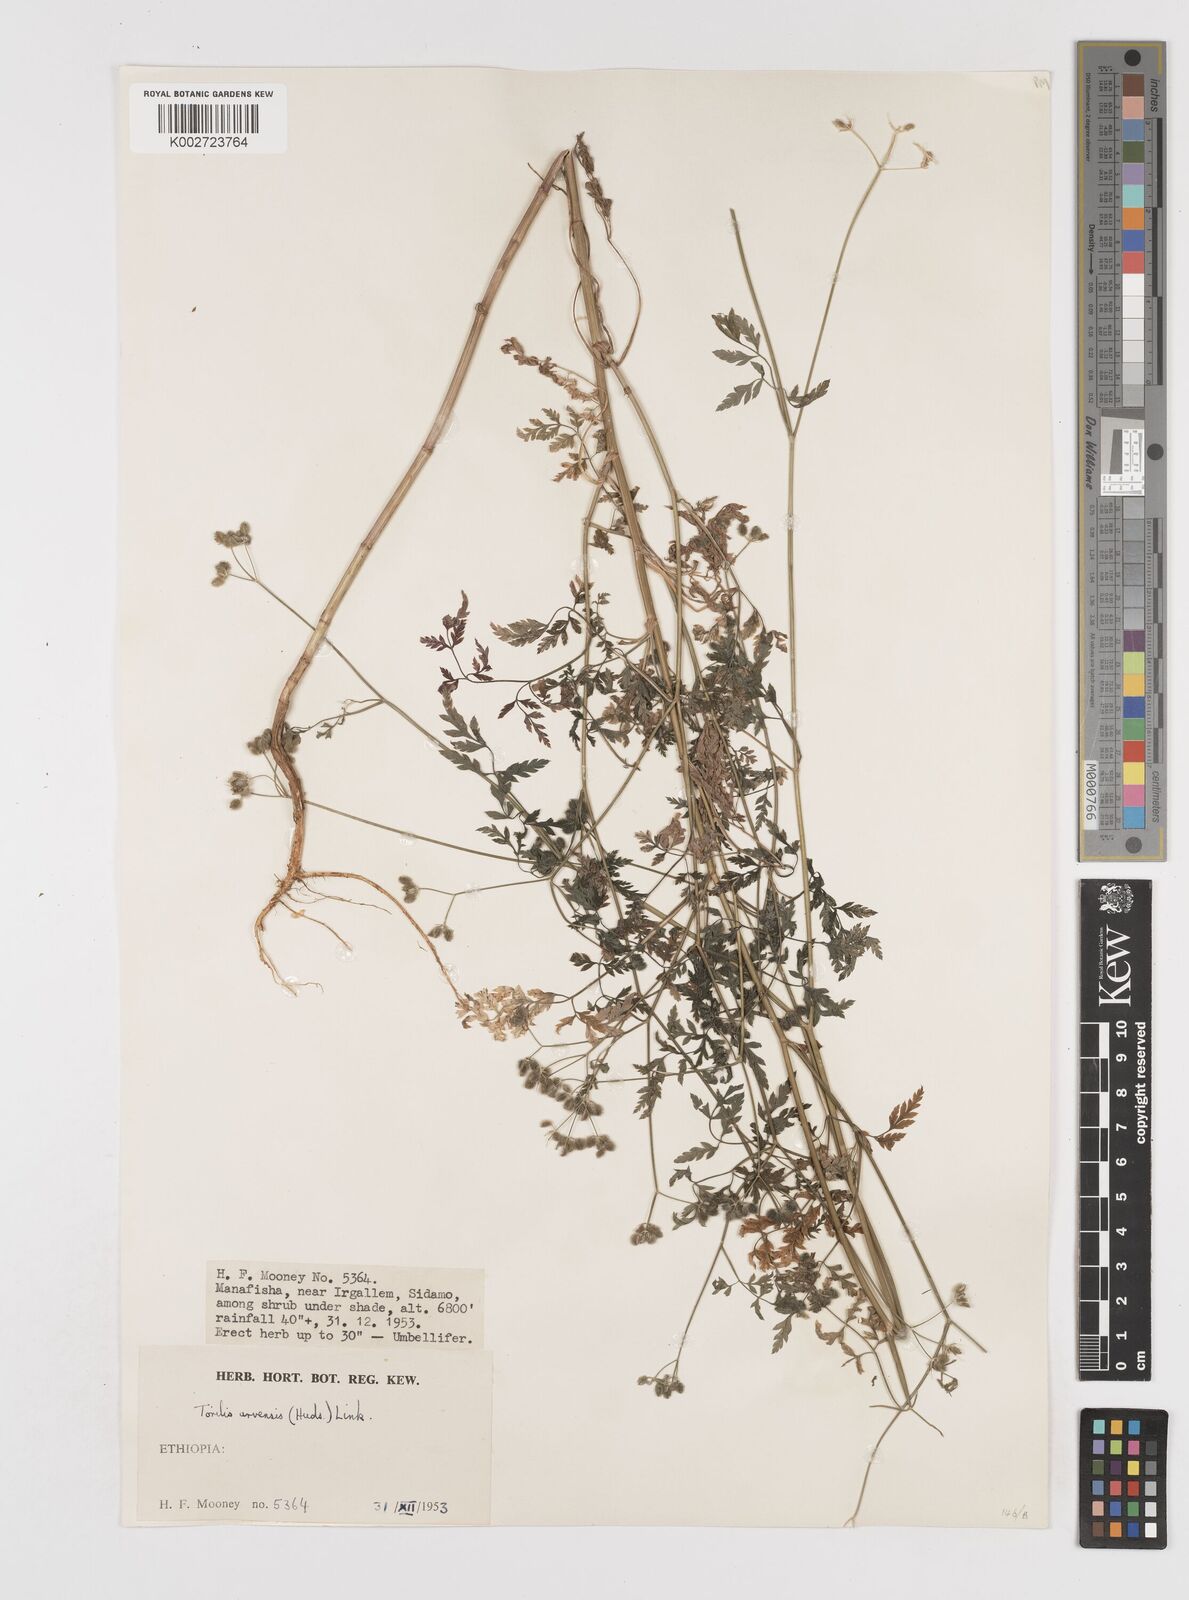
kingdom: Plantae
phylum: Tracheophyta
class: Magnoliopsida
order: Apiales
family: Apiaceae
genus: Torilis
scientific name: Torilis arvensis
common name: Spreading hedge-parsley
